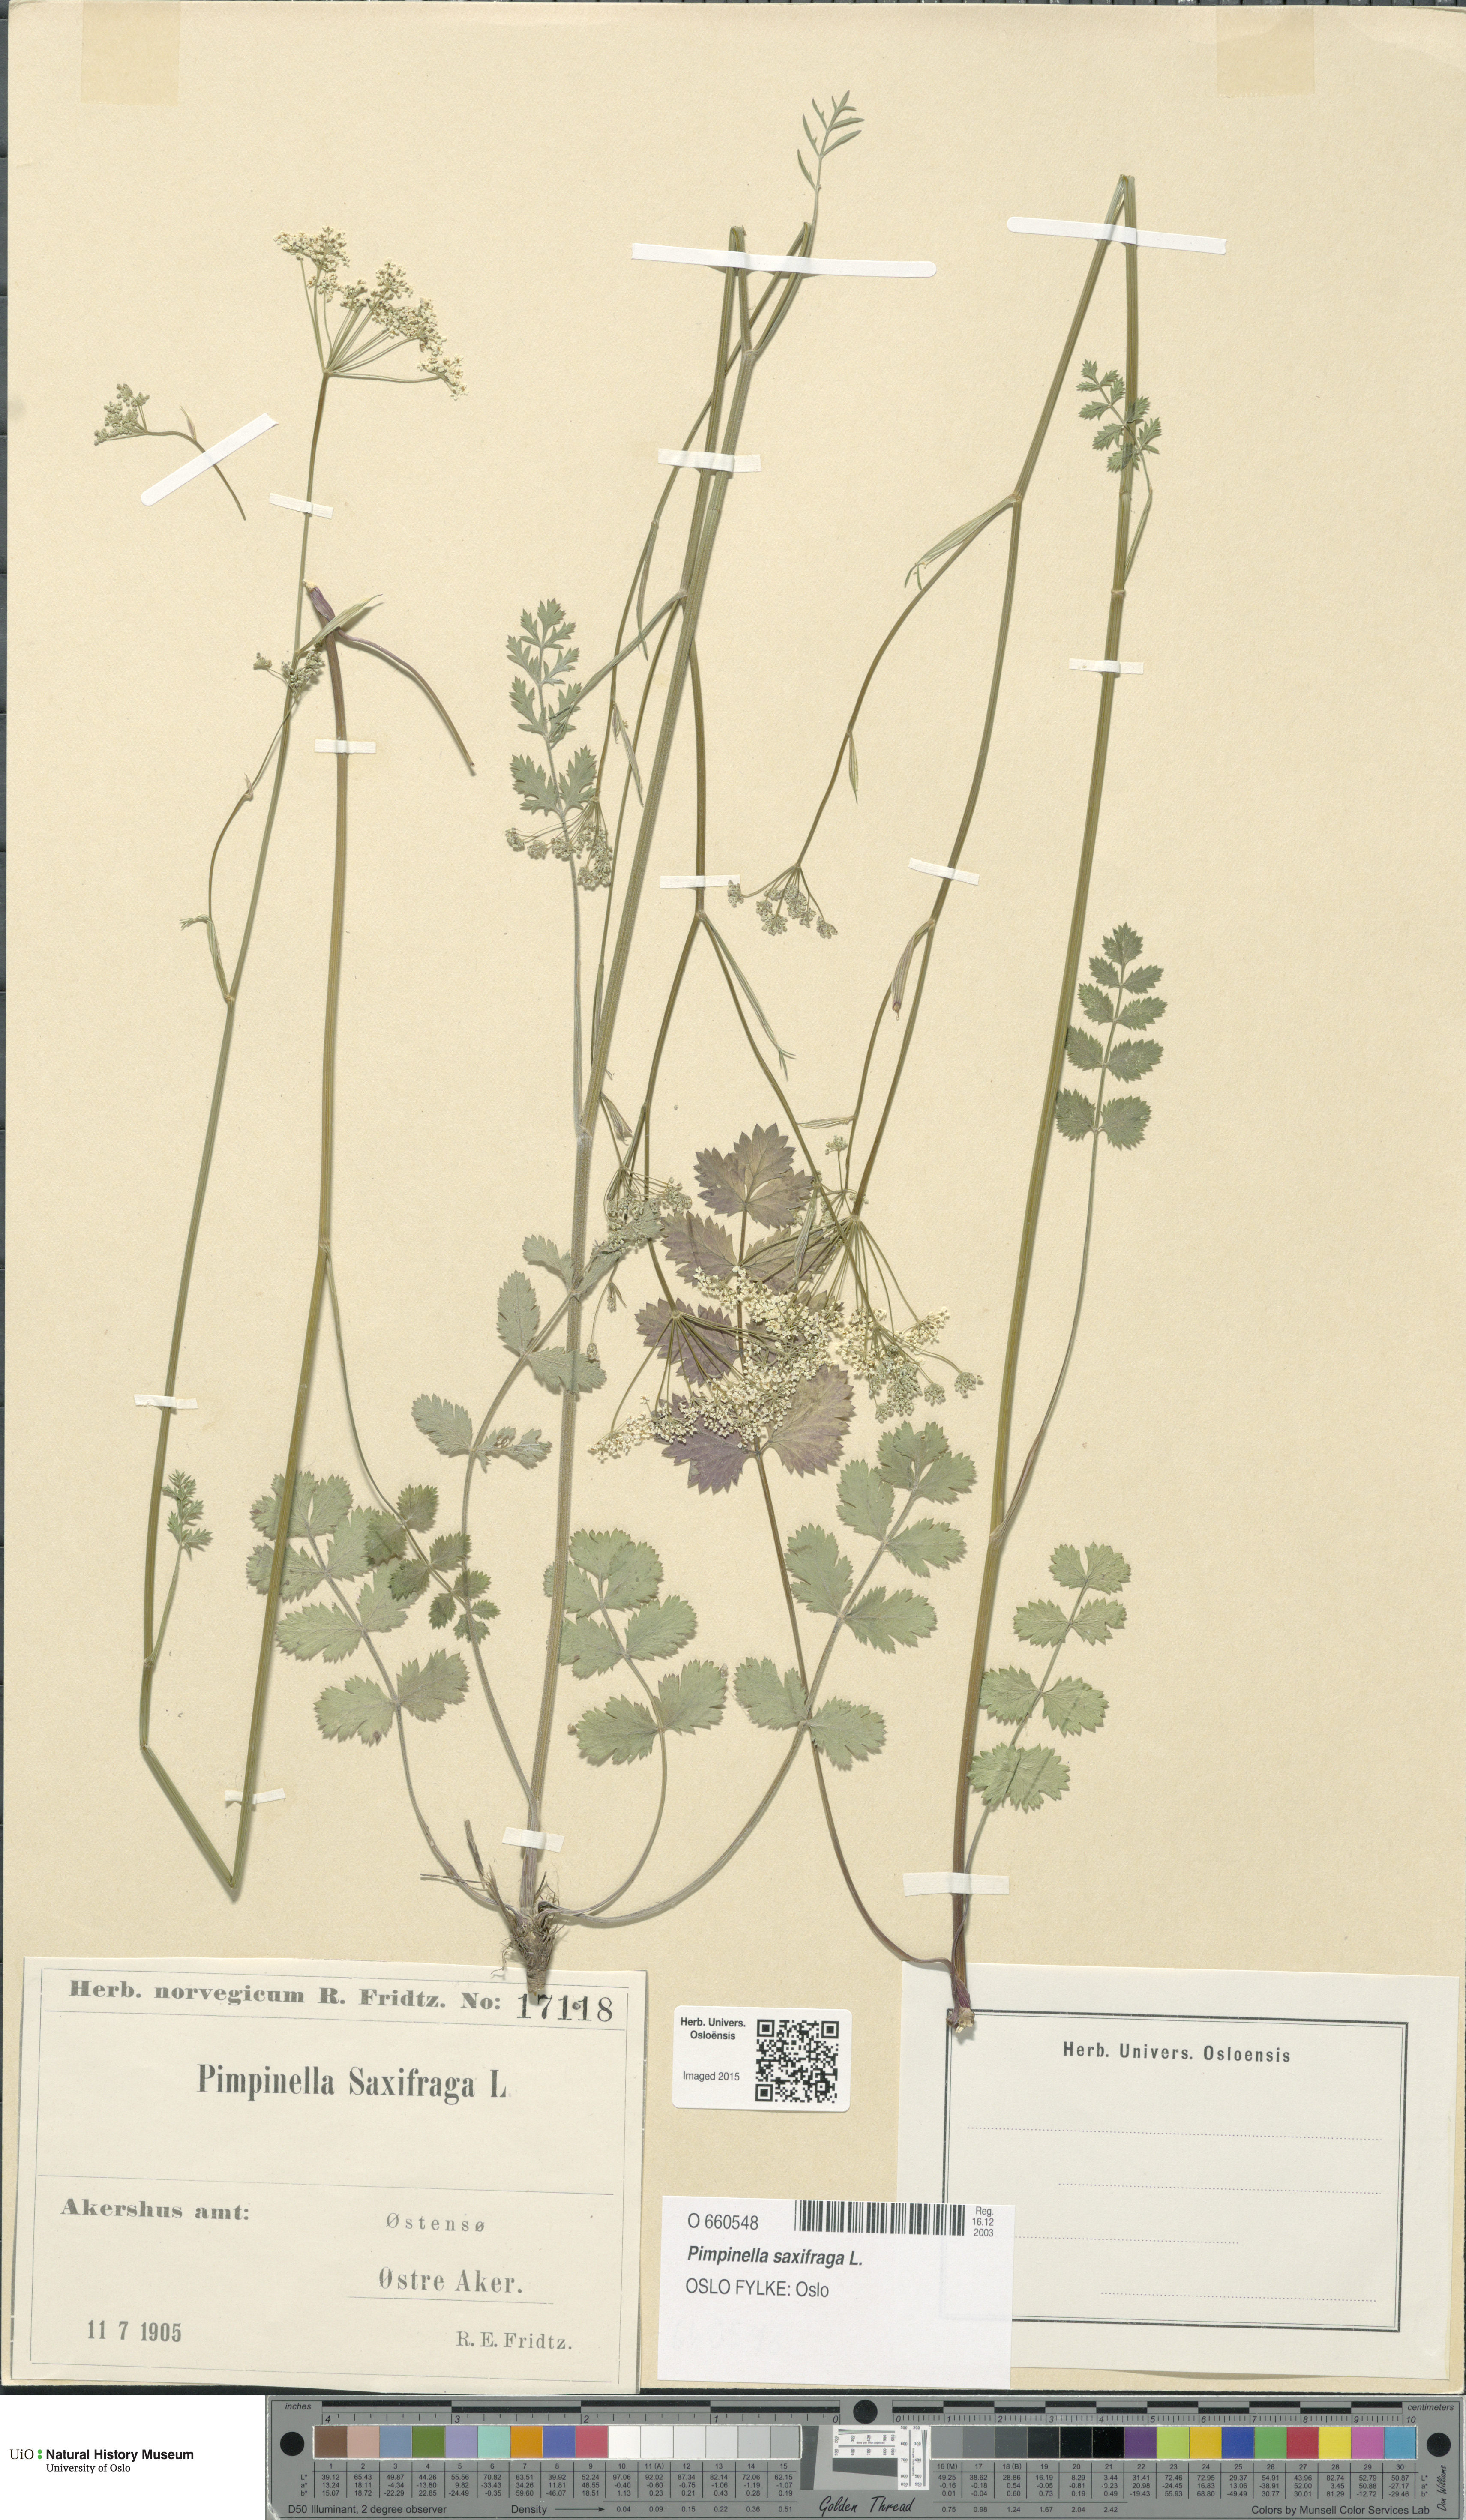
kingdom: Plantae
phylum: Tracheophyta
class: Magnoliopsida
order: Apiales
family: Apiaceae
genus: Pimpinella
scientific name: Pimpinella saxifraga
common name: Burnet-saxifrage
